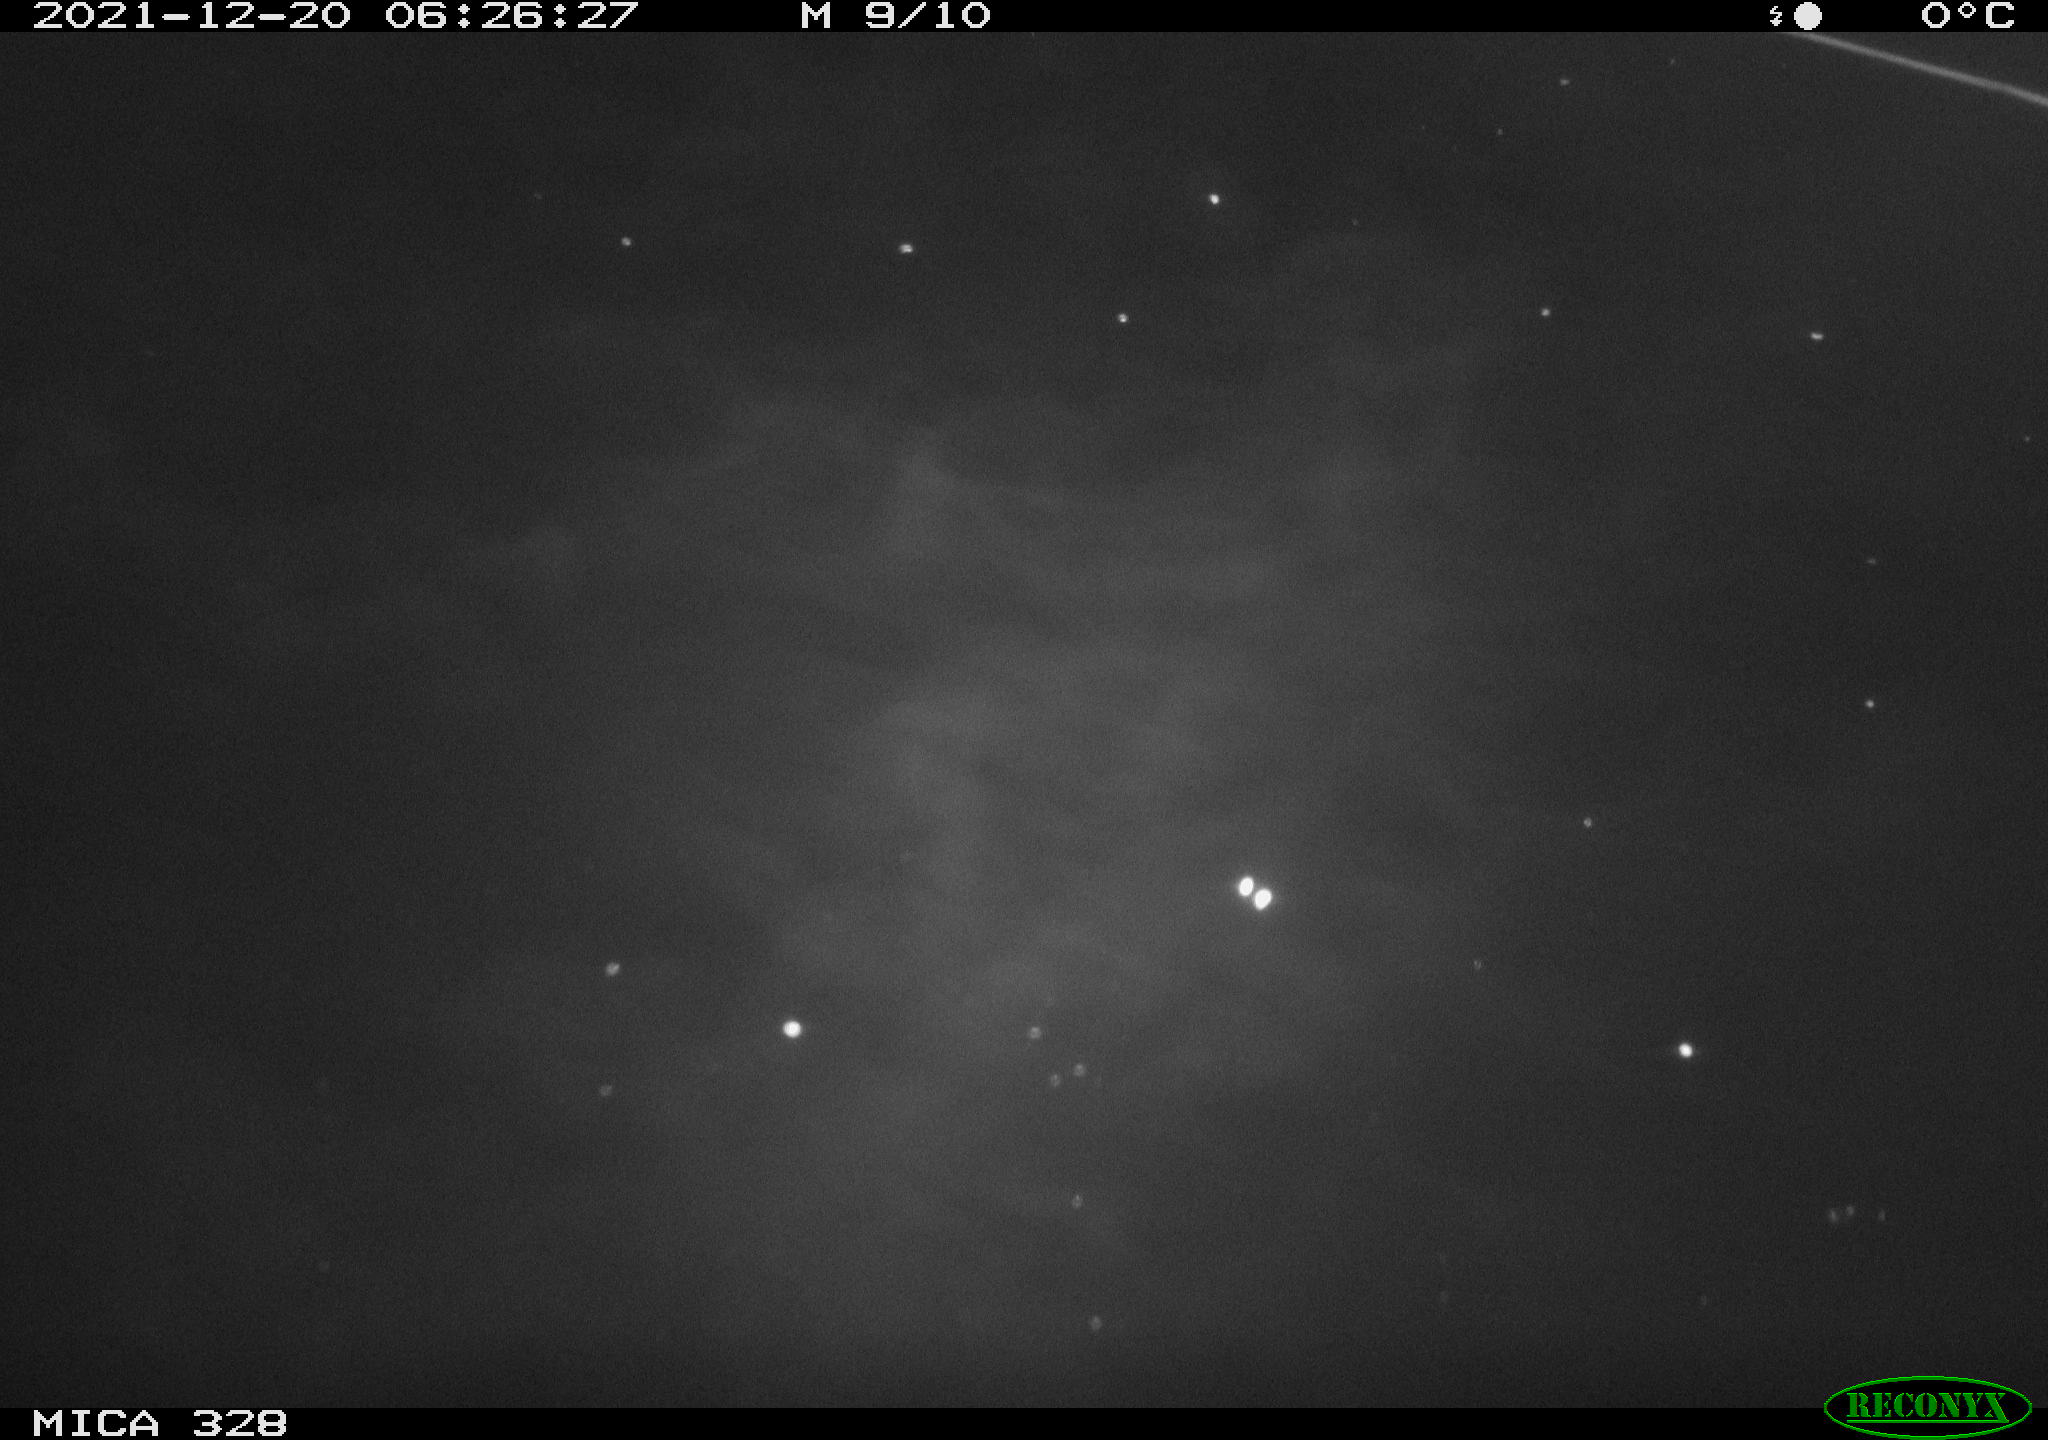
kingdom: Animalia
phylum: Chordata
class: Aves
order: Anseriformes
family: Anatidae
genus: Anas
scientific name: Anas platyrhynchos
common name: Mallard
